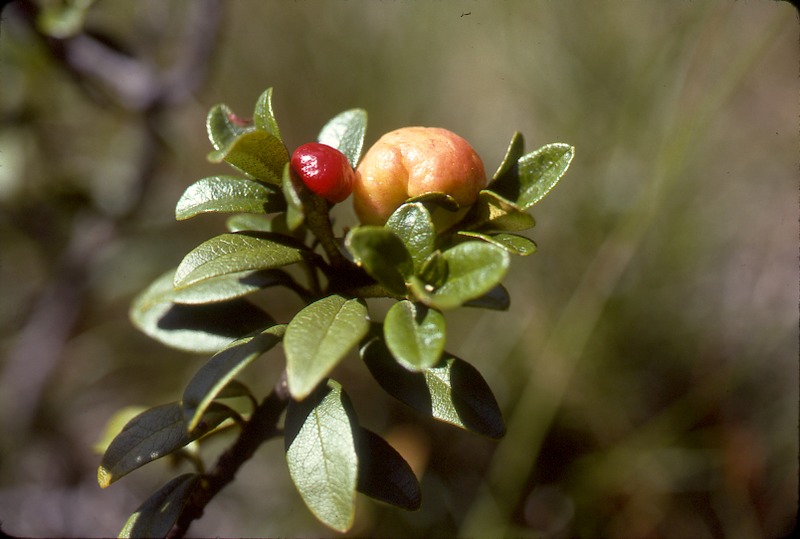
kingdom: Fungi
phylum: Basidiomycota
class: Exobasidiomycetes
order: Exobasidiales
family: Exobasidiaceae
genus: Exobasidium
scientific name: Exobasidium rhododendri
